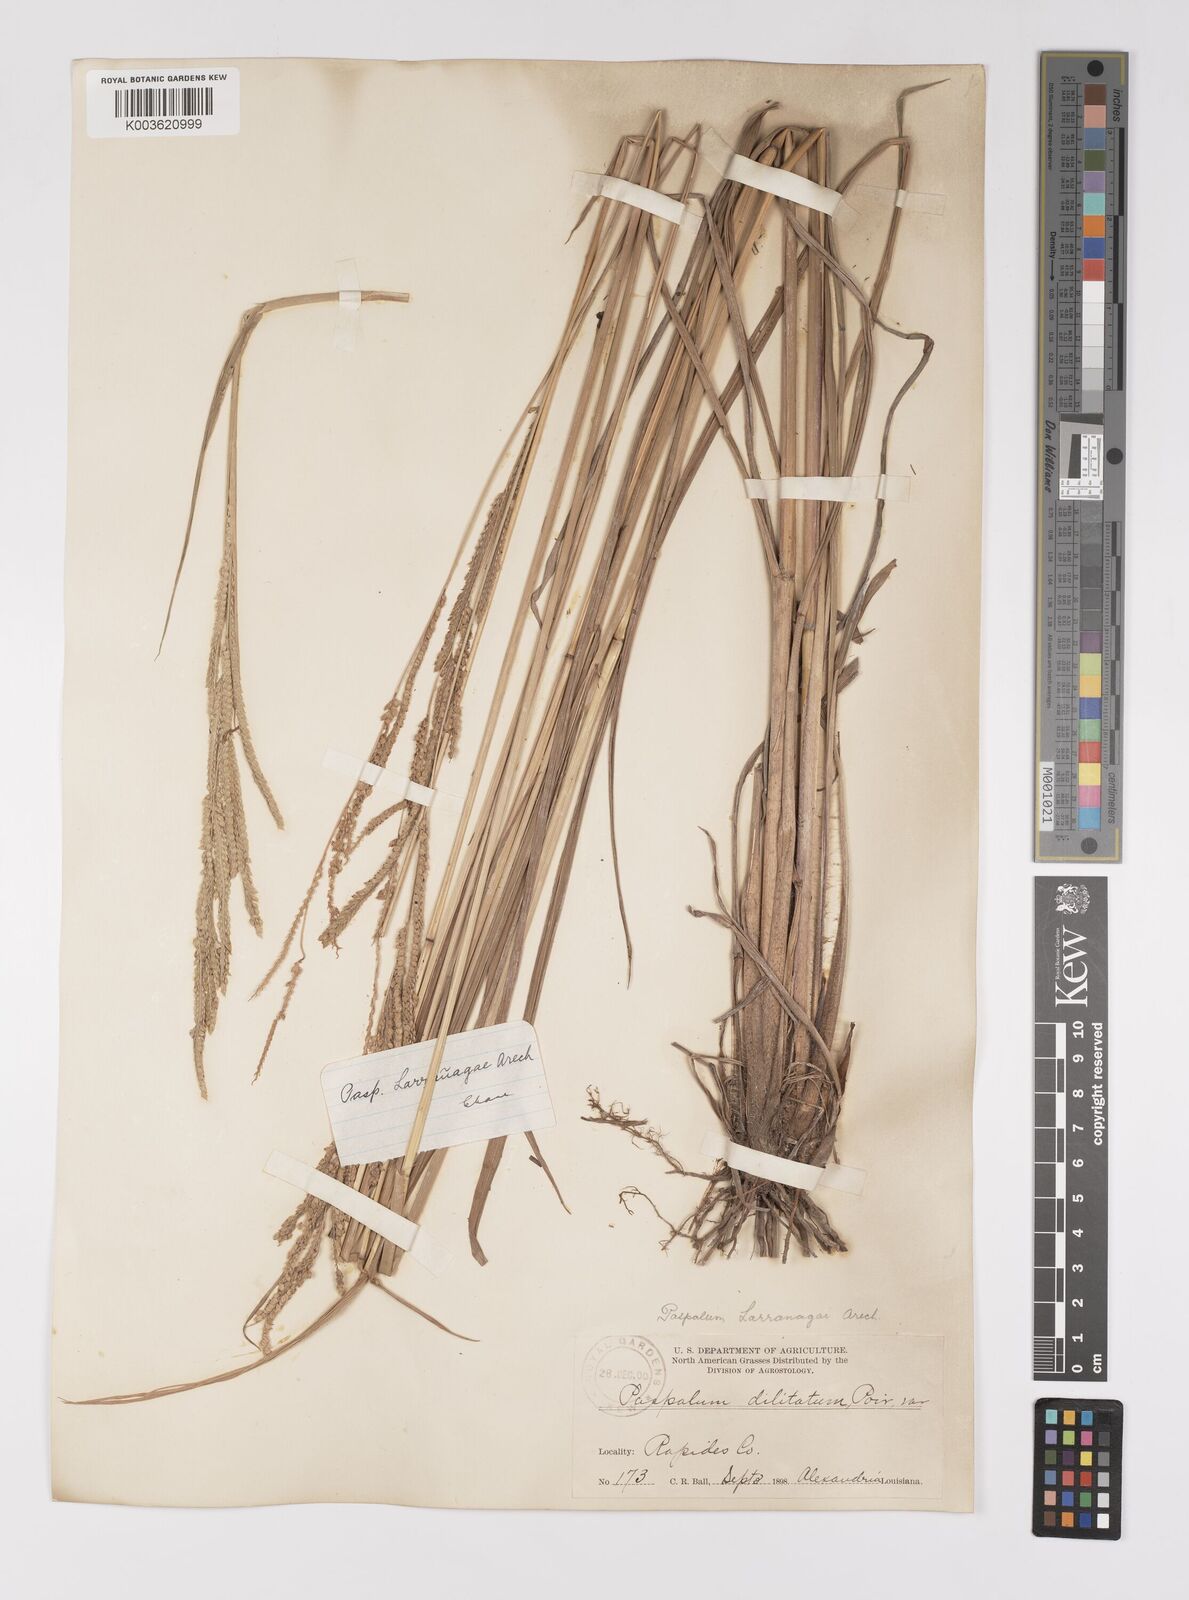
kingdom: Plantae
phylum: Tracheophyta
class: Liliopsida
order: Poales
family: Poaceae
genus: Paspalum
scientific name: Paspalum urvillei
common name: Vasey's grass
